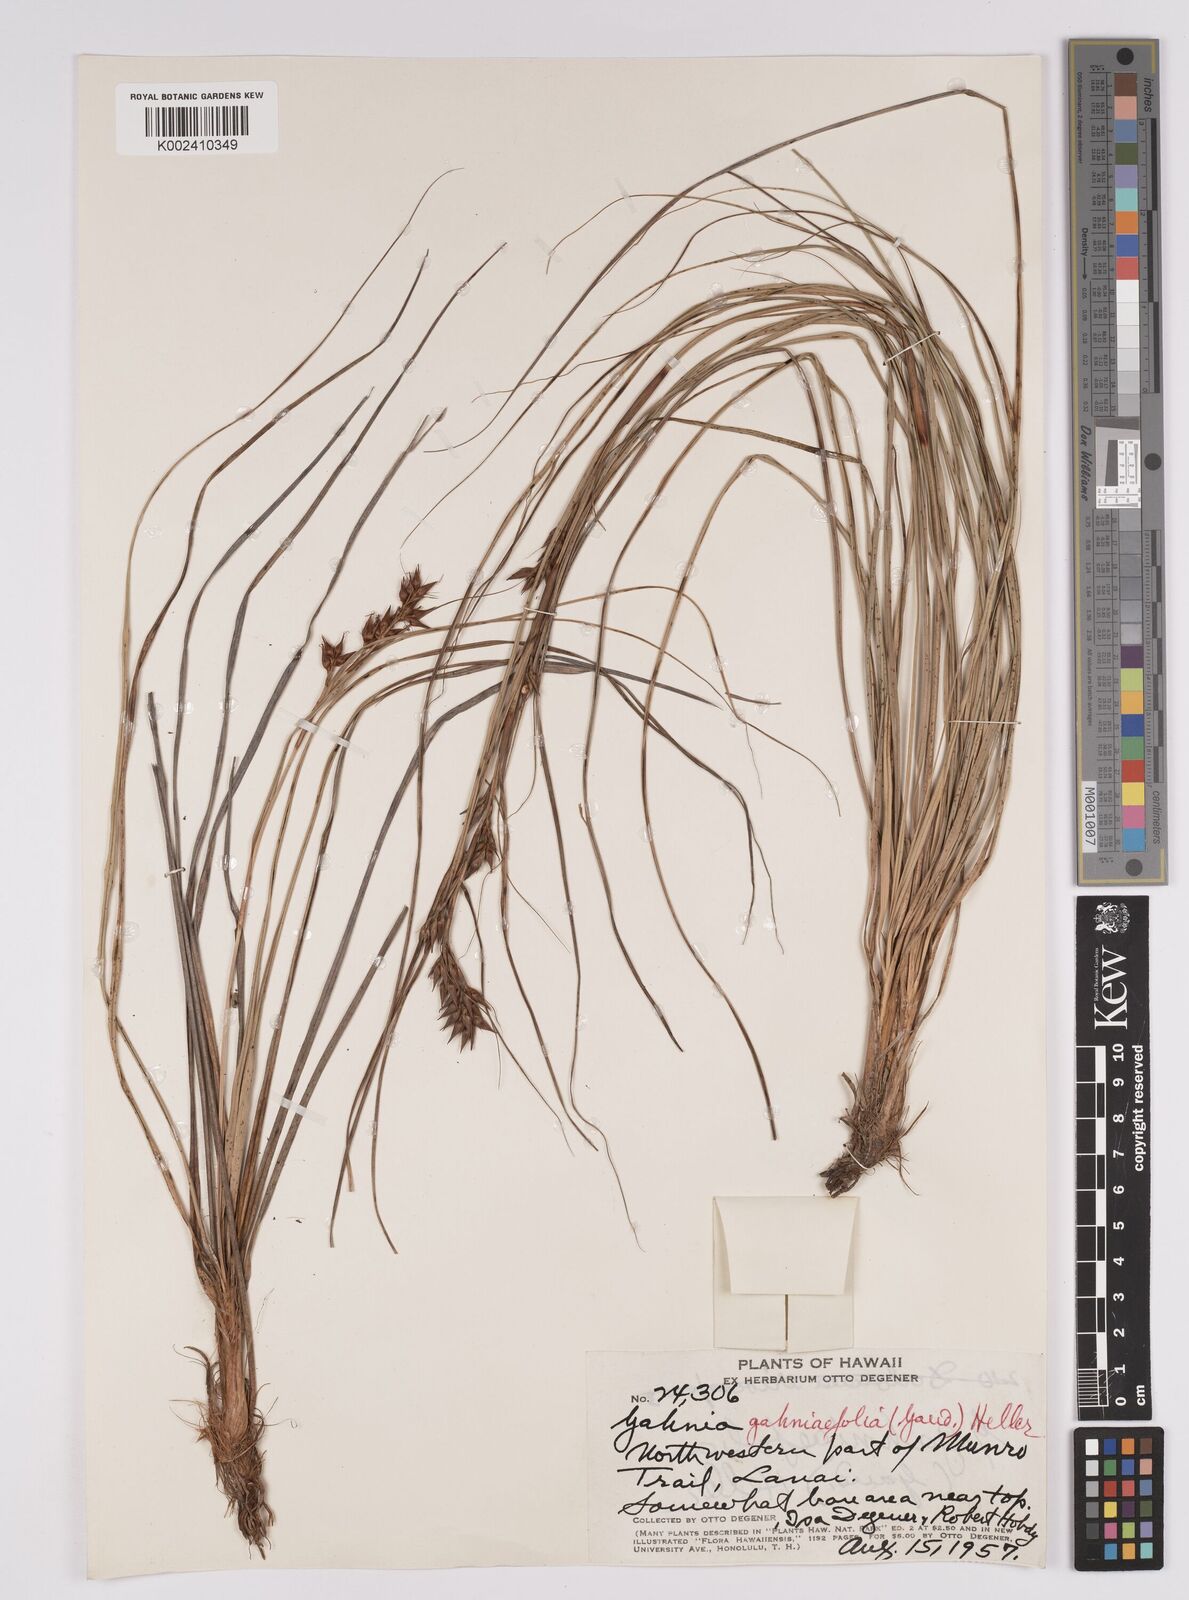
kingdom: Plantae
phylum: Tracheophyta
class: Liliopsida
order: Poales
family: Cyperaceae
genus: Morelotia
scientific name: Morelotia gahniiformis
